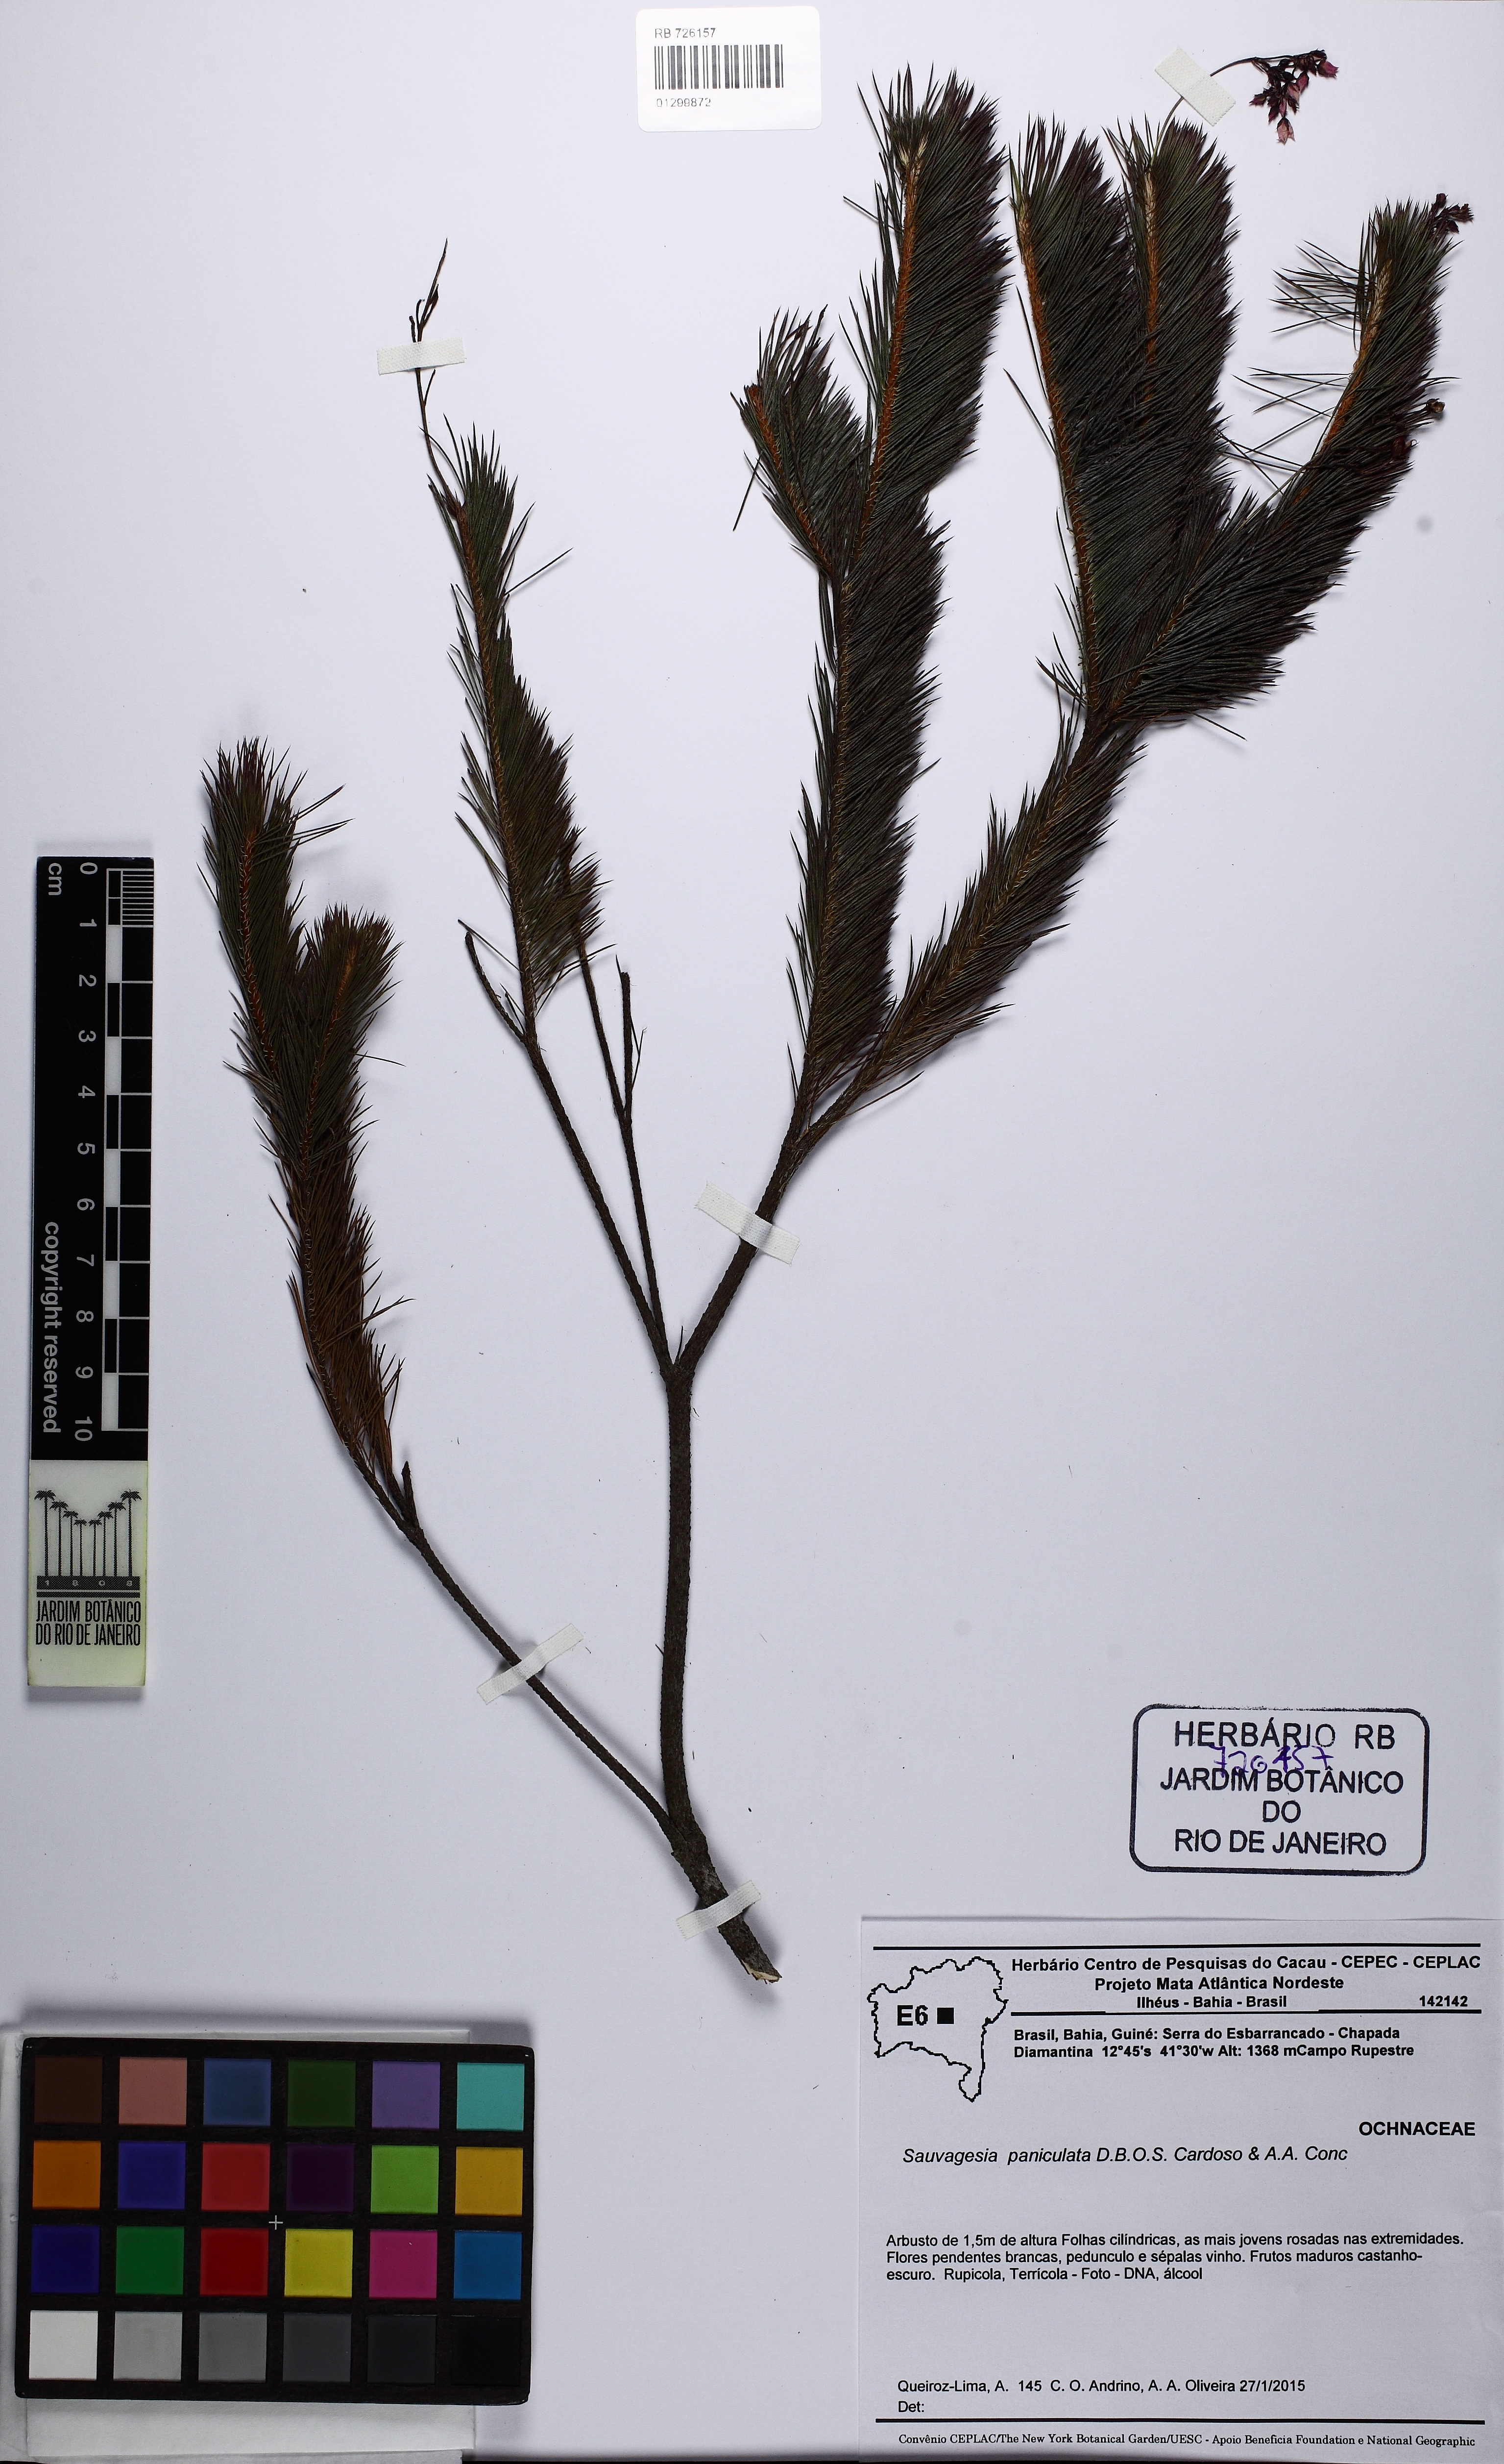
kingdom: Plantae
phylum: Tracheophyta
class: Magnoliopsida
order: Malpighiales
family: Ochnaceae
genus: Sauvagesia
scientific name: Sauvagesia paniculata
